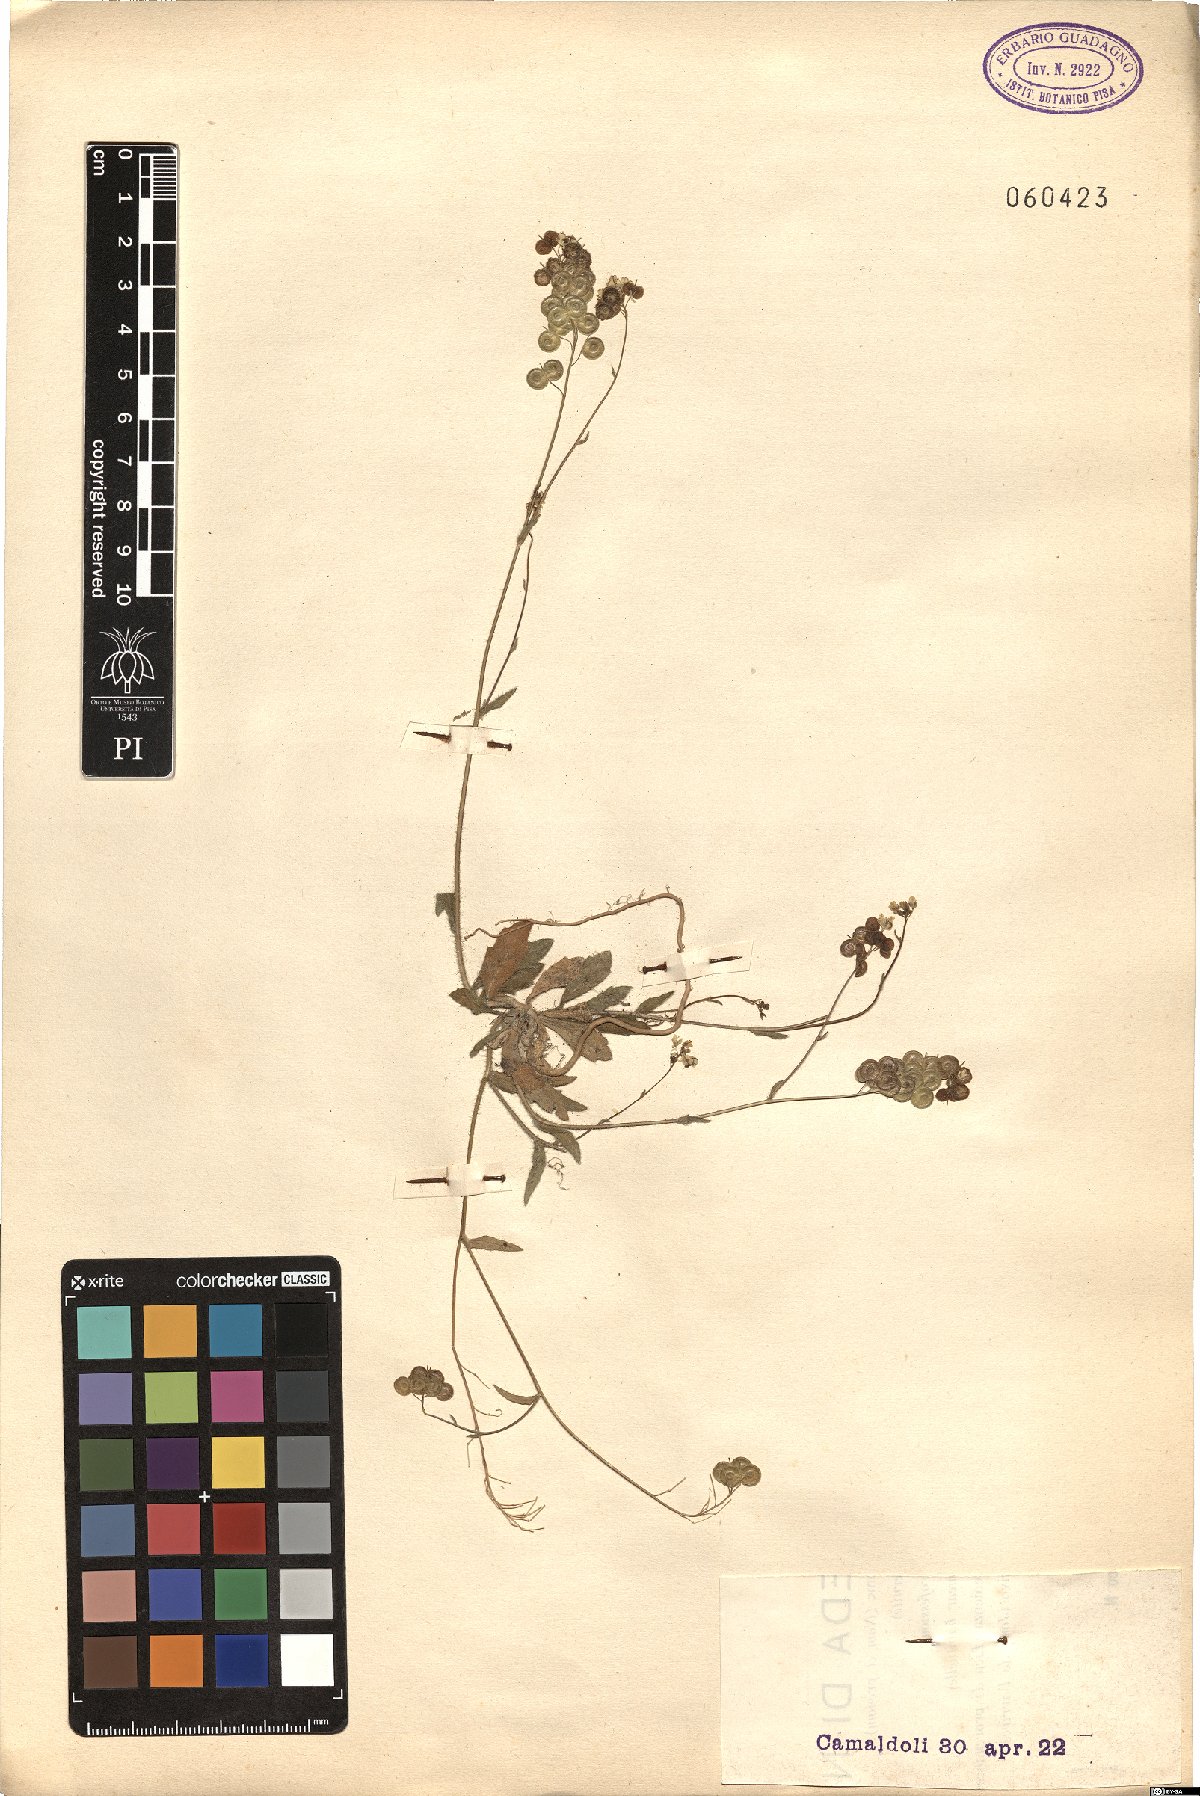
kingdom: Plantae
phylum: Tracheophyta
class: Magnoliopsida
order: Brassicales
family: Brassicaceae
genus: Biscutella
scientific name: Biscutella didyma
